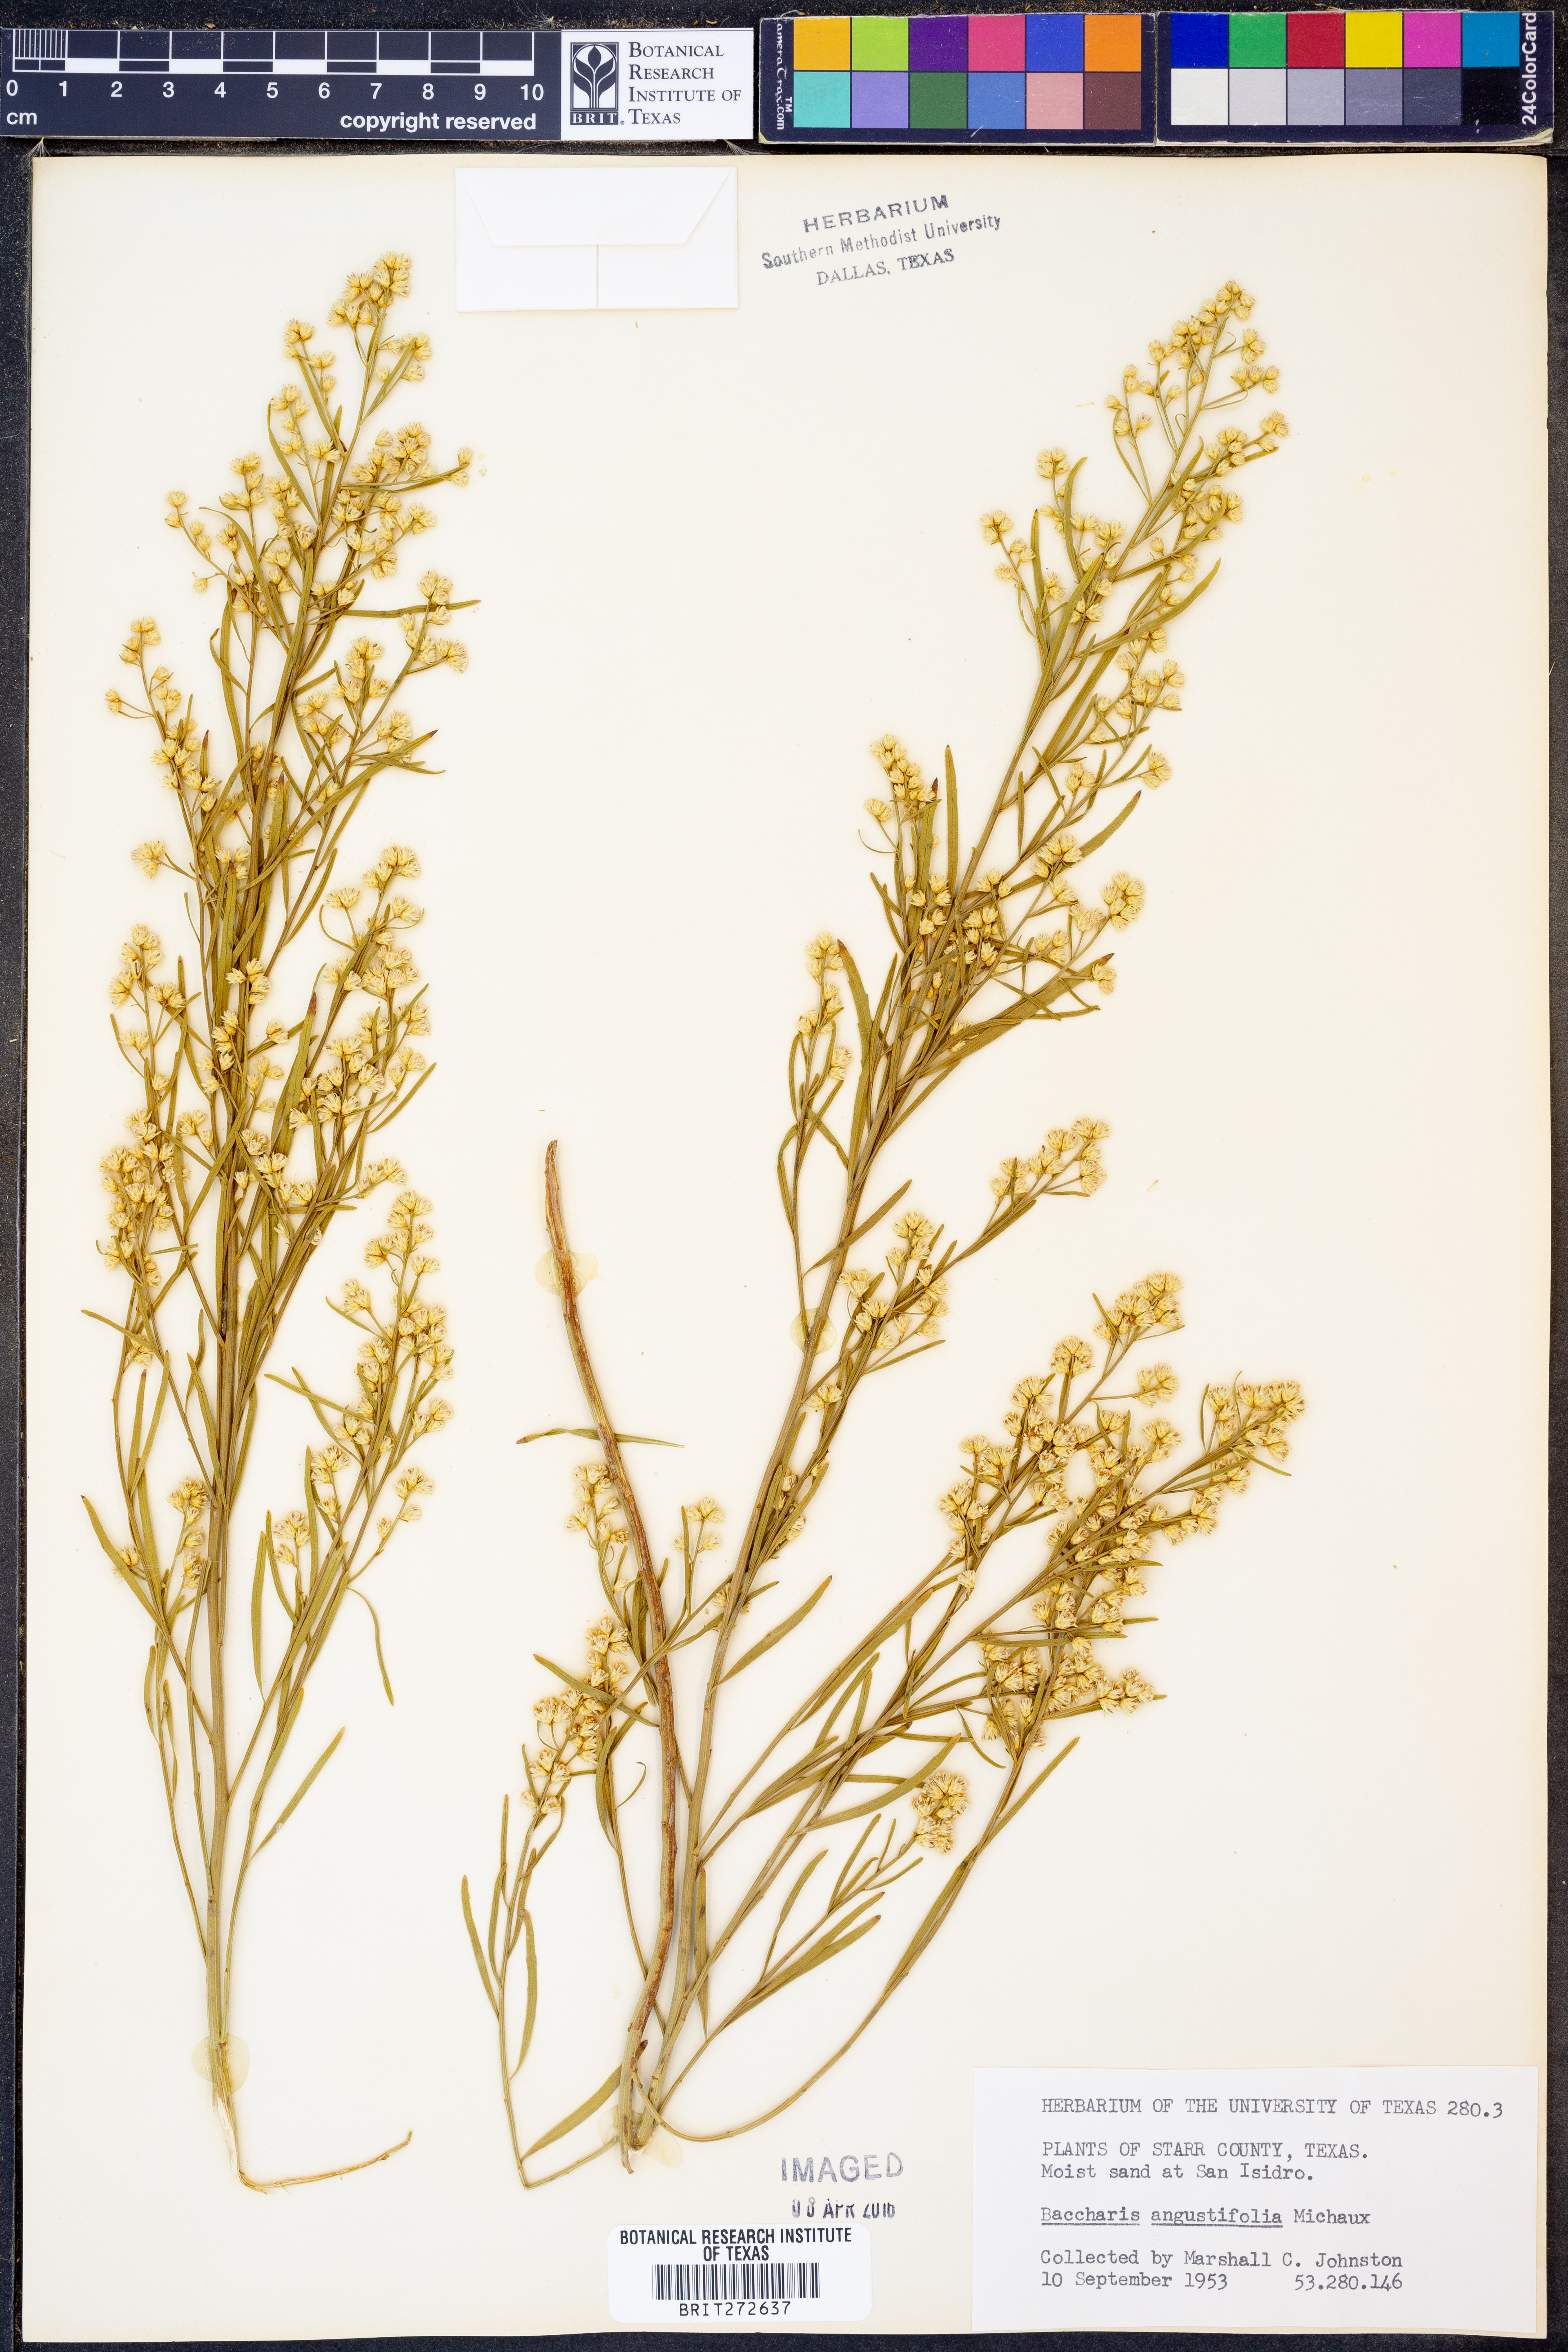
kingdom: Plantae
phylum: Tracheophyta
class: Magnoliopsida
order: Asterales
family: Asteraceae
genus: Baccharis
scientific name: Baccharis angustifolia
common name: Narrow-leaf baccharis
